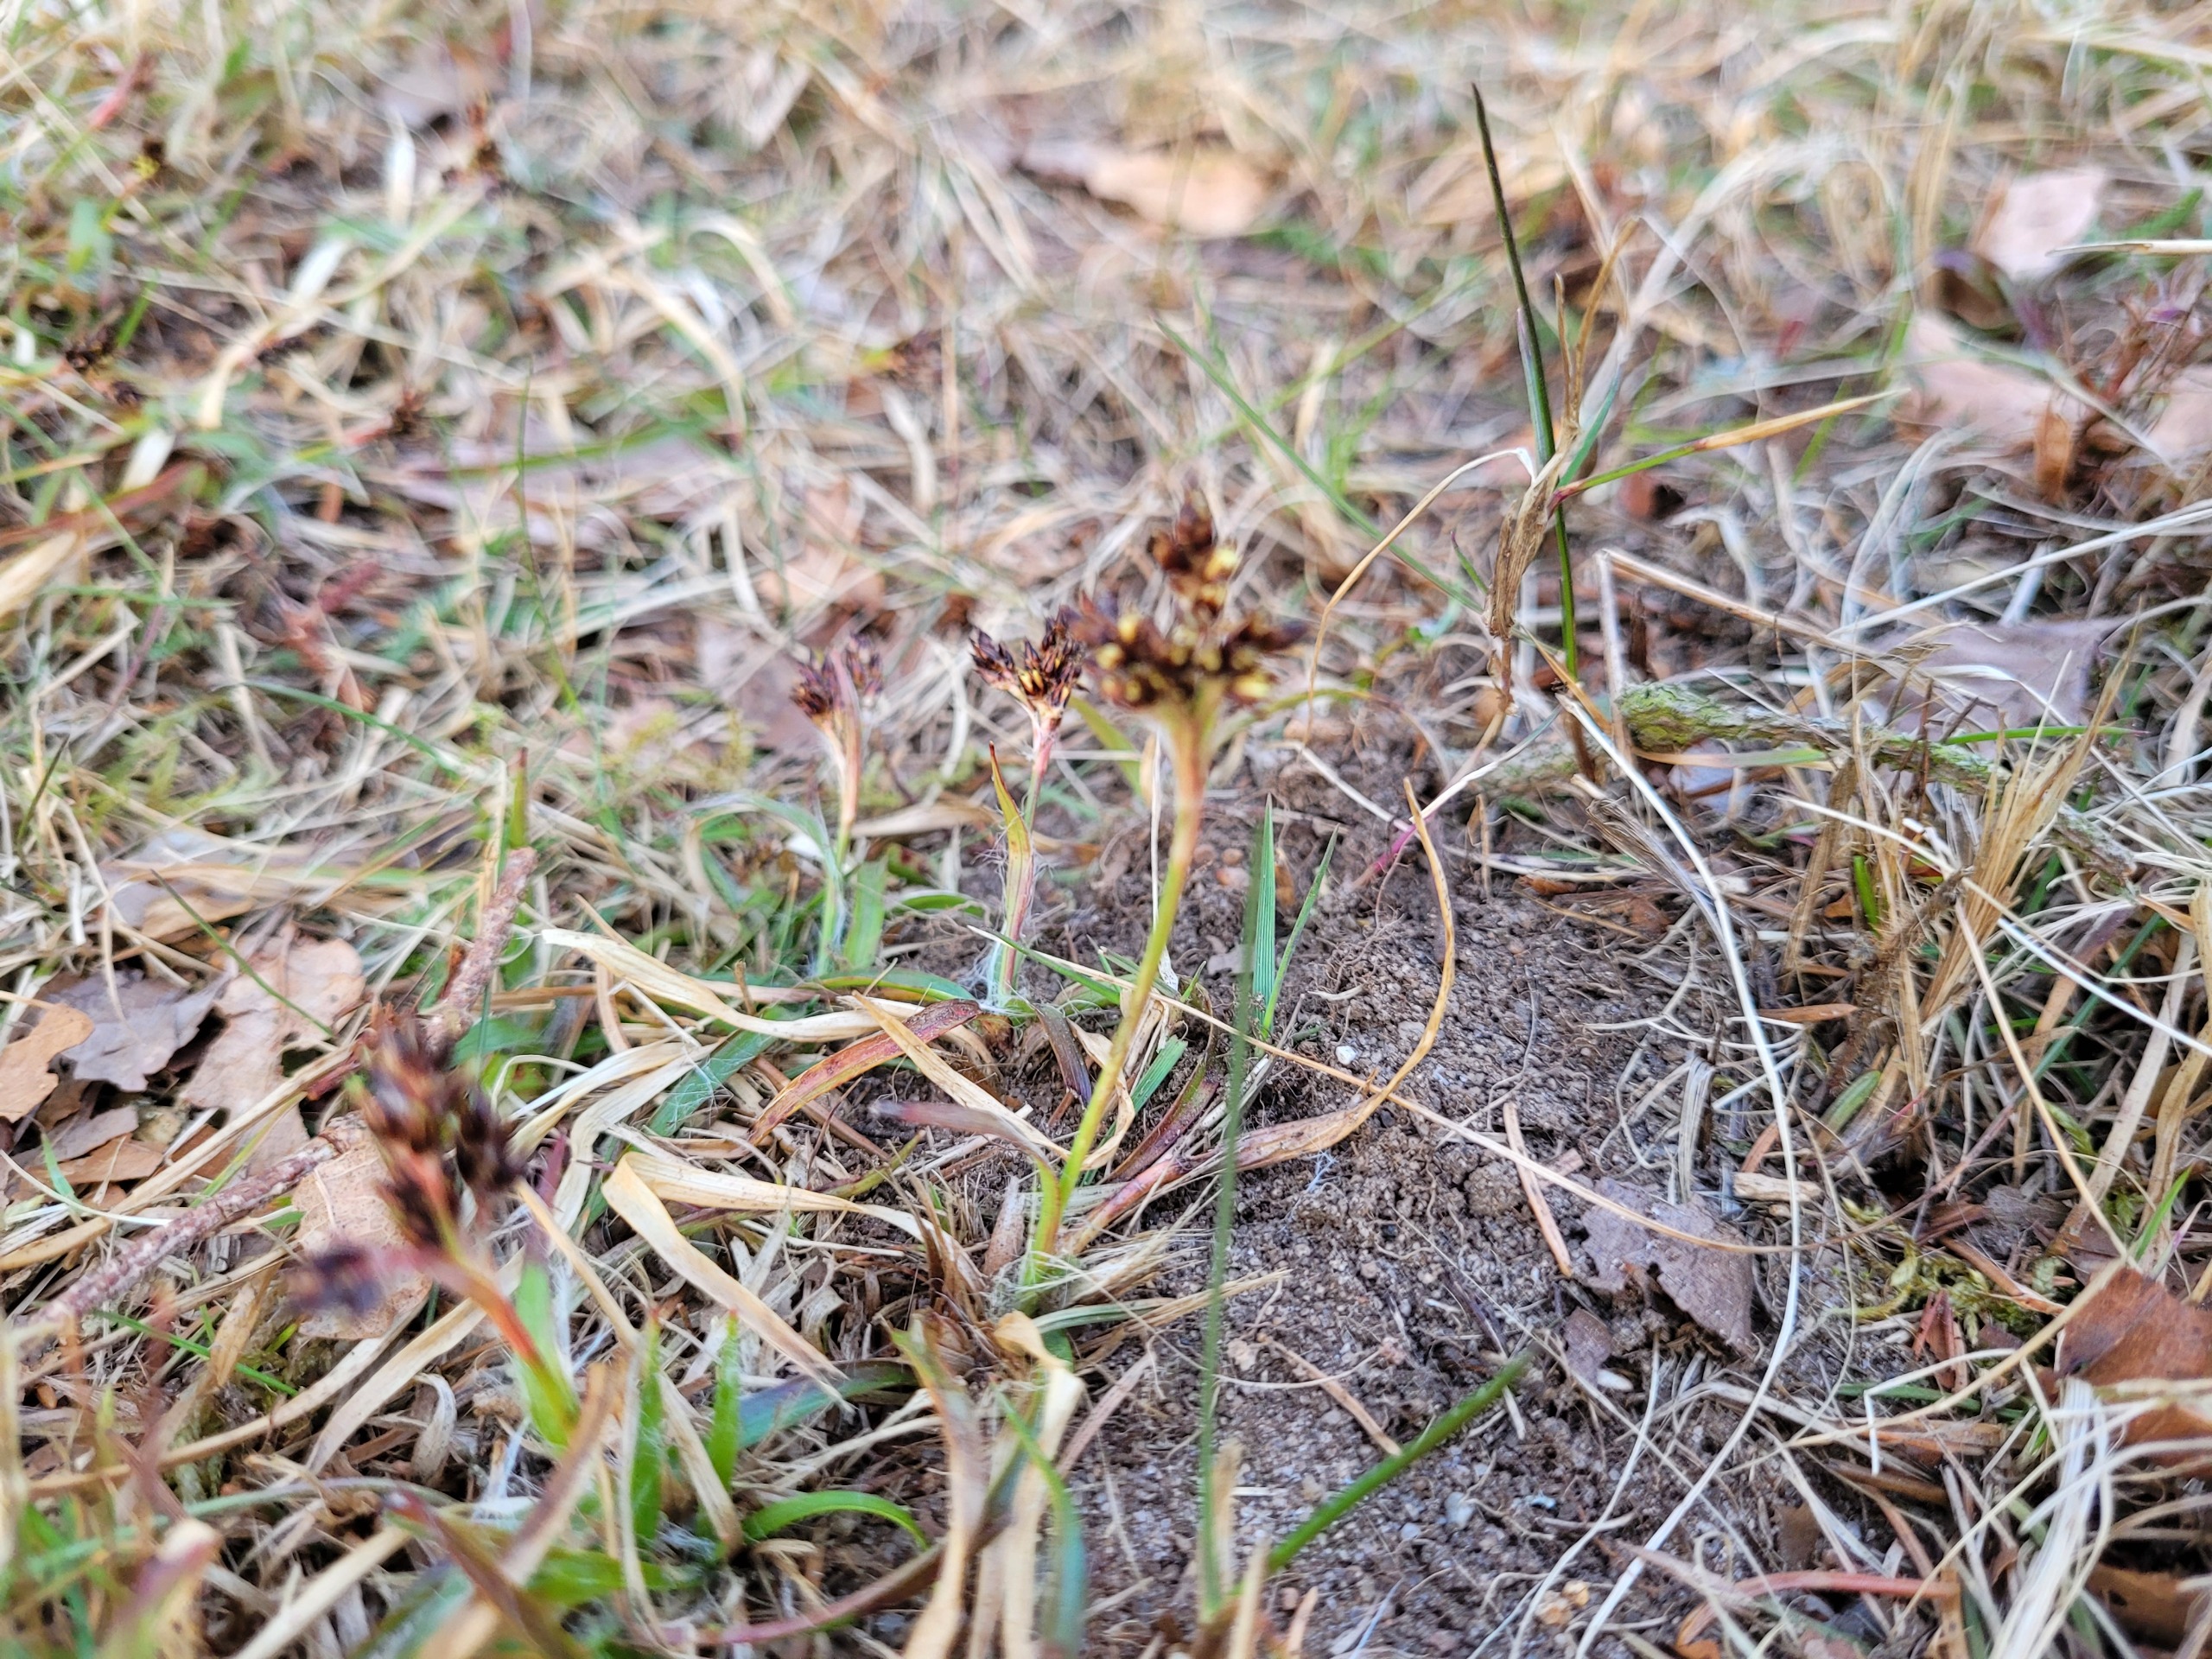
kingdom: Plantae
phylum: Tracheophyta
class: Liliopsida
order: Poales
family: Juncaceae
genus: Luzula
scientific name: Luzula campestris
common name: Mark-frytle
